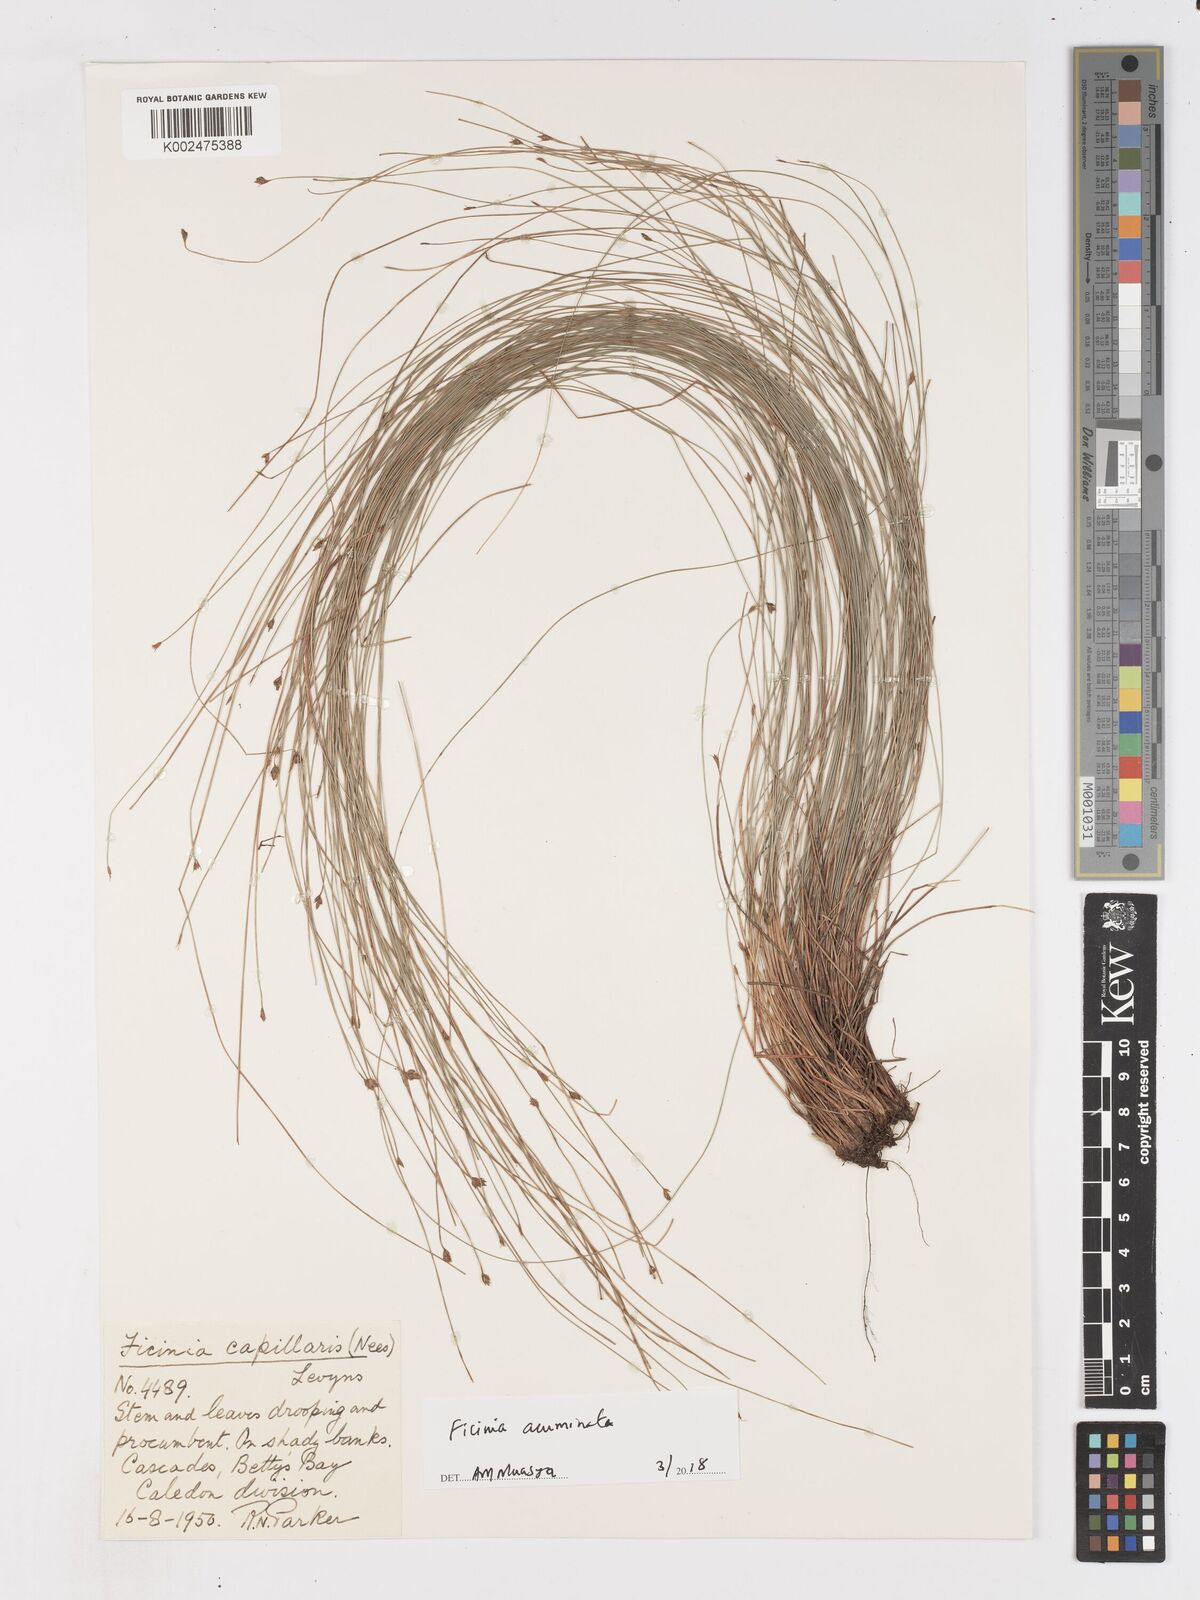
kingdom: Plantae
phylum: Tracheophyta
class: Liliopsida
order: Poales
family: Cyperaceae
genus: Ficinia
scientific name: Ficinia acuminata
